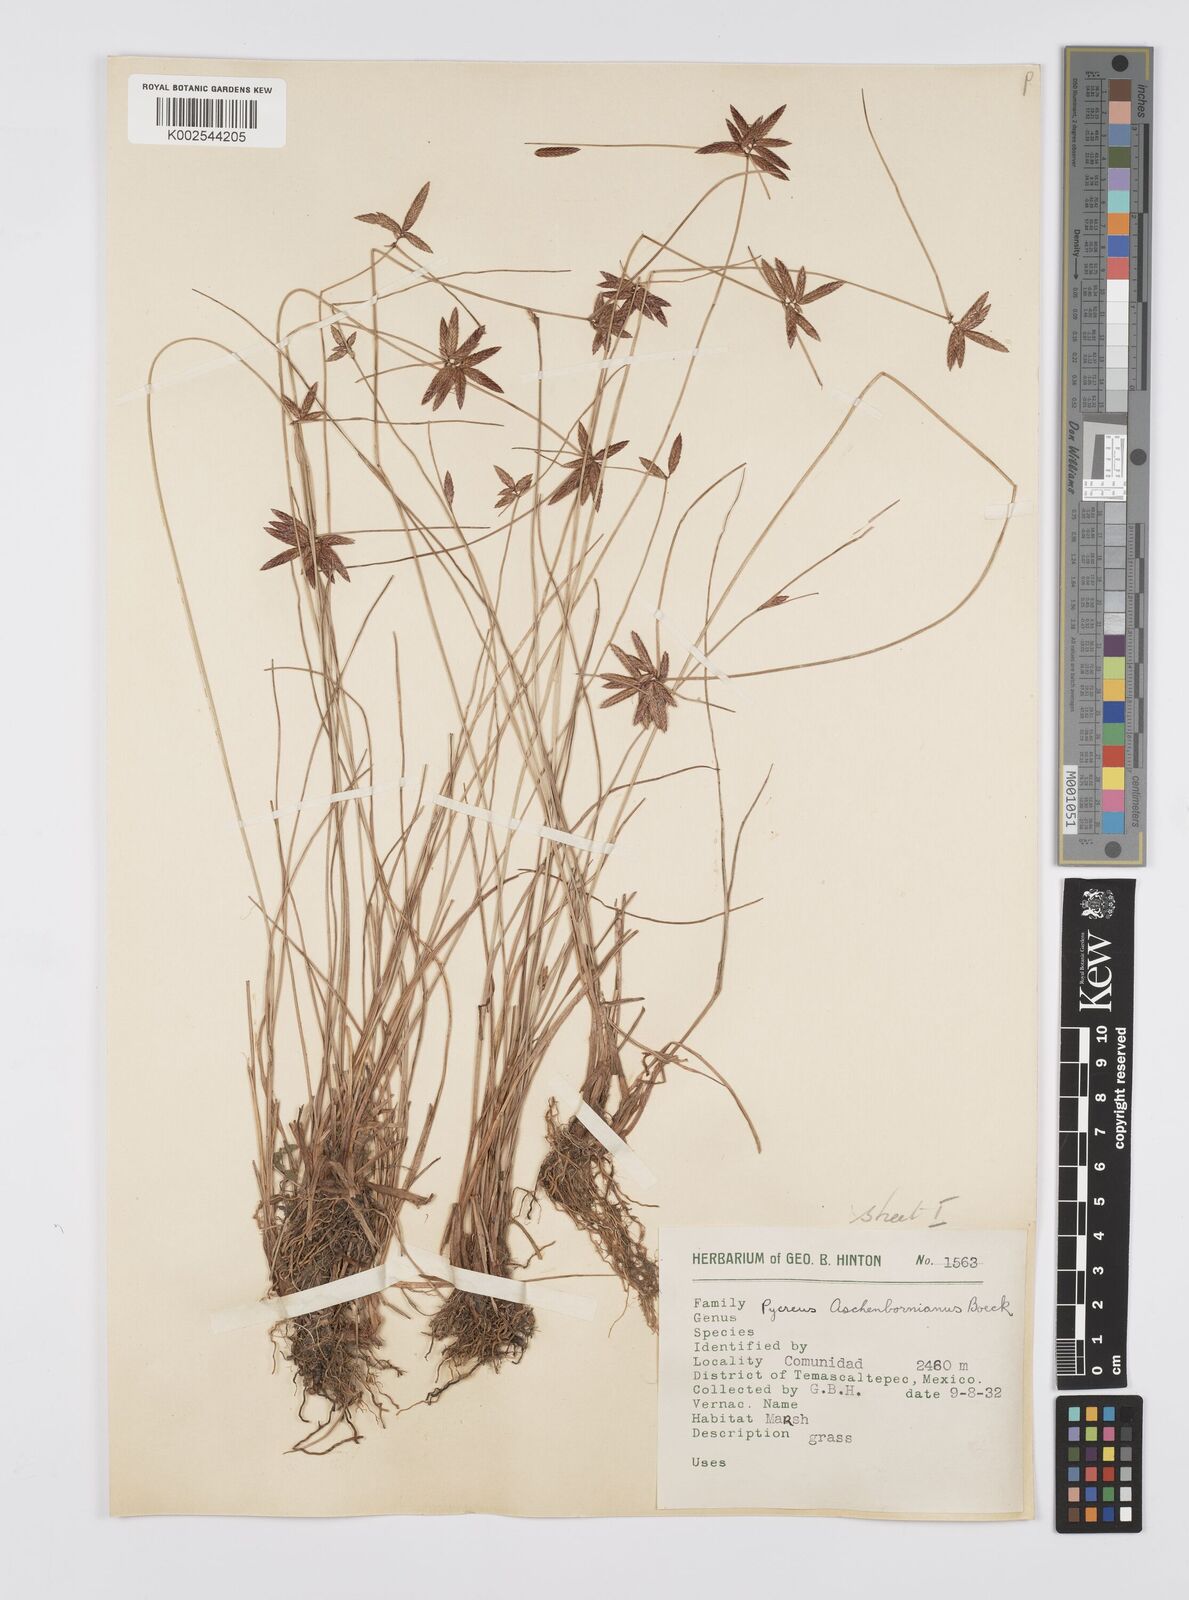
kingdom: Plantae
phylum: Tracheophyta
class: Liliopsida
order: Poales
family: Cyperaceae
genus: Cyperus
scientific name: Cyperus aschenbornianus
